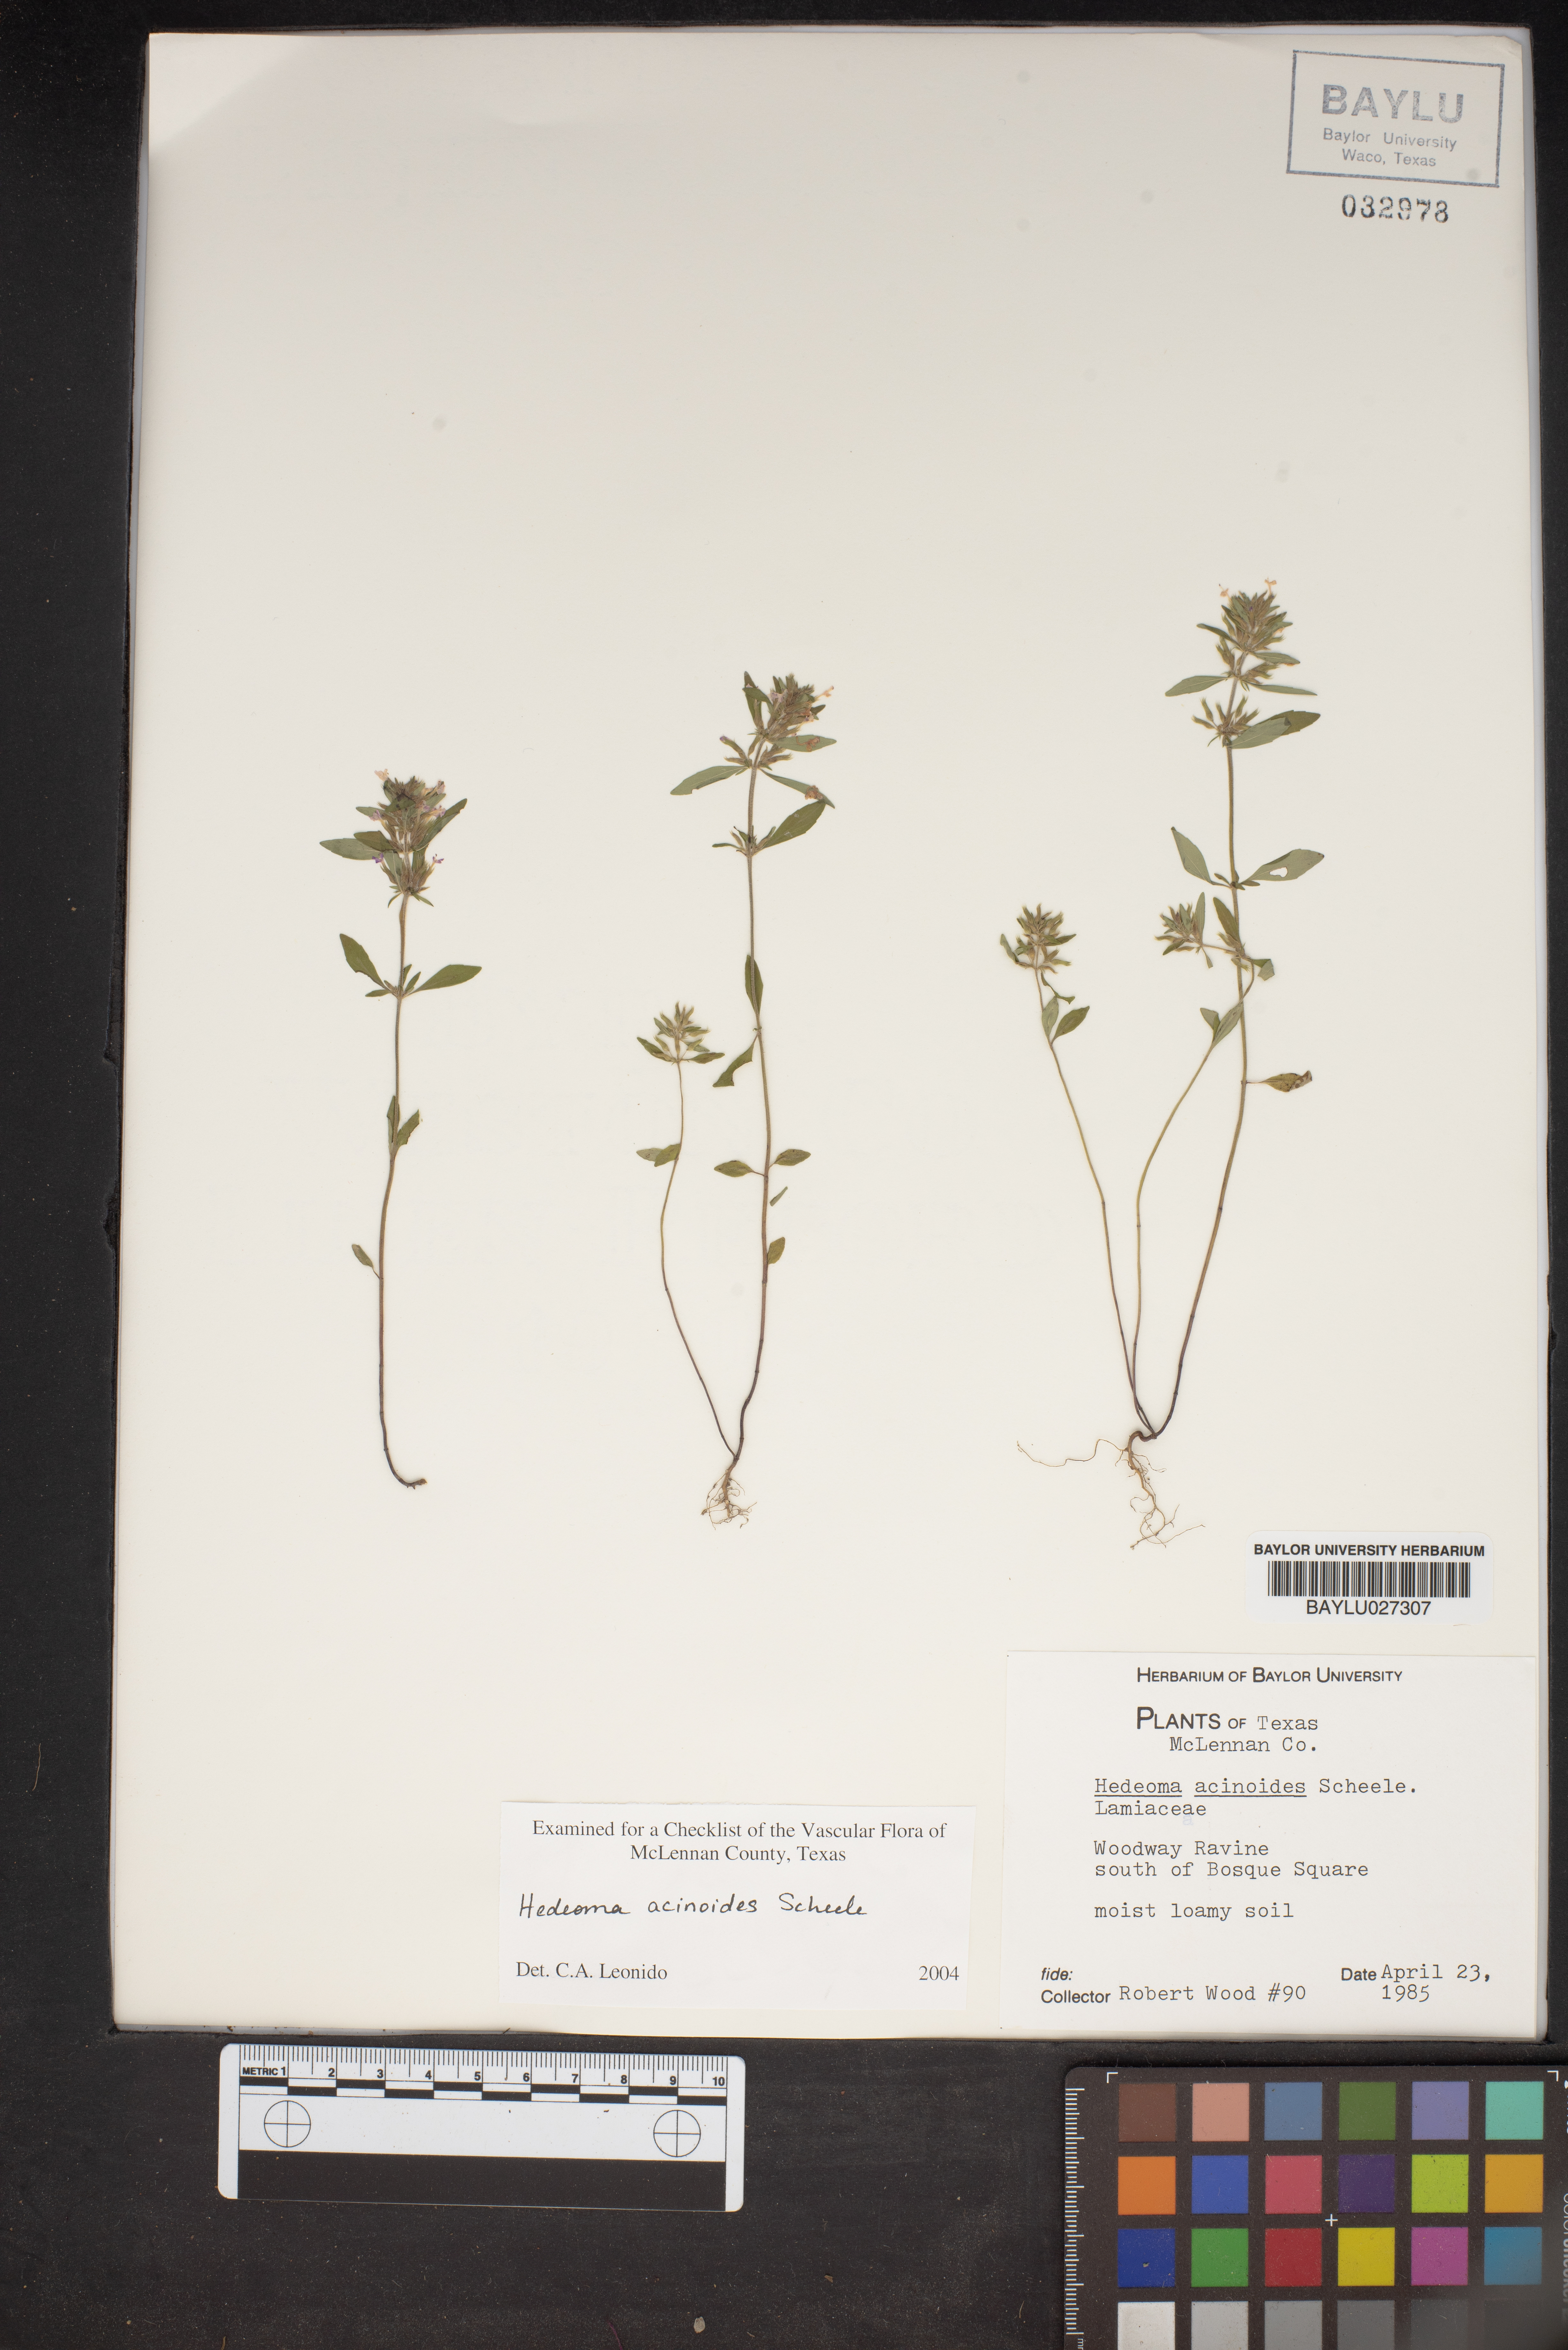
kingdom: Plantae
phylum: Tracheophyta
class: Magnoliopsida
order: Lamiales
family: Lamiaceae
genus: Hedeoma
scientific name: Hedeoma acinoides
